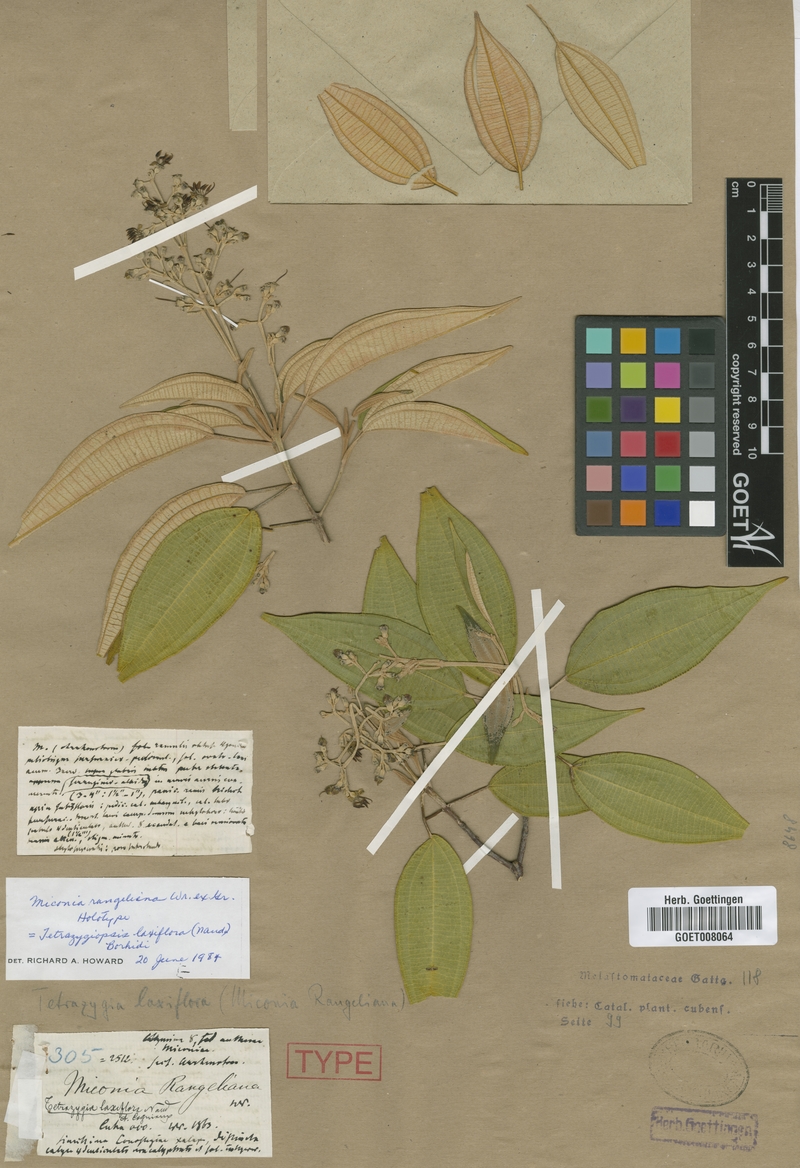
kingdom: Plantae
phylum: Tracheophyta
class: Magnoliopsida
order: Myrtales
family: Melastomataceae
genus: Miconia
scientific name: Miconia rangeliana
